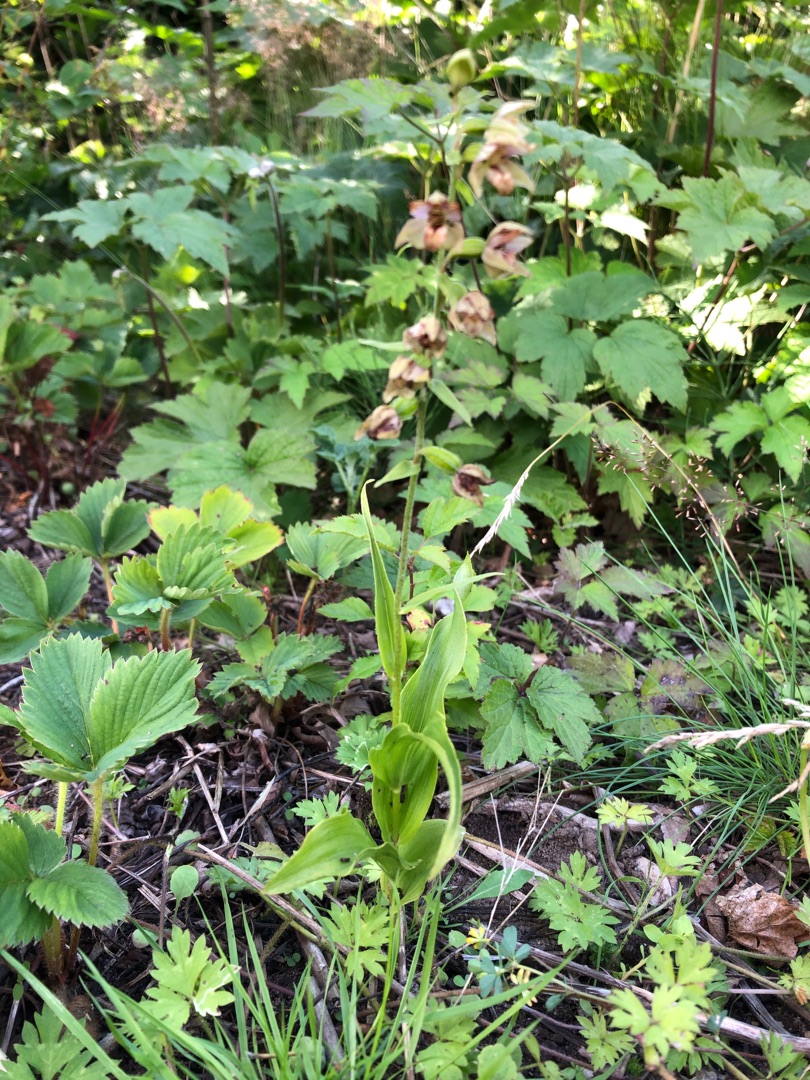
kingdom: Plantae
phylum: Tracheophyta
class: Liliopsida
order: Asparagales
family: Orchidaceae
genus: Epipactis
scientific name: Epipactis helleborine
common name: Skov-hullæbe
